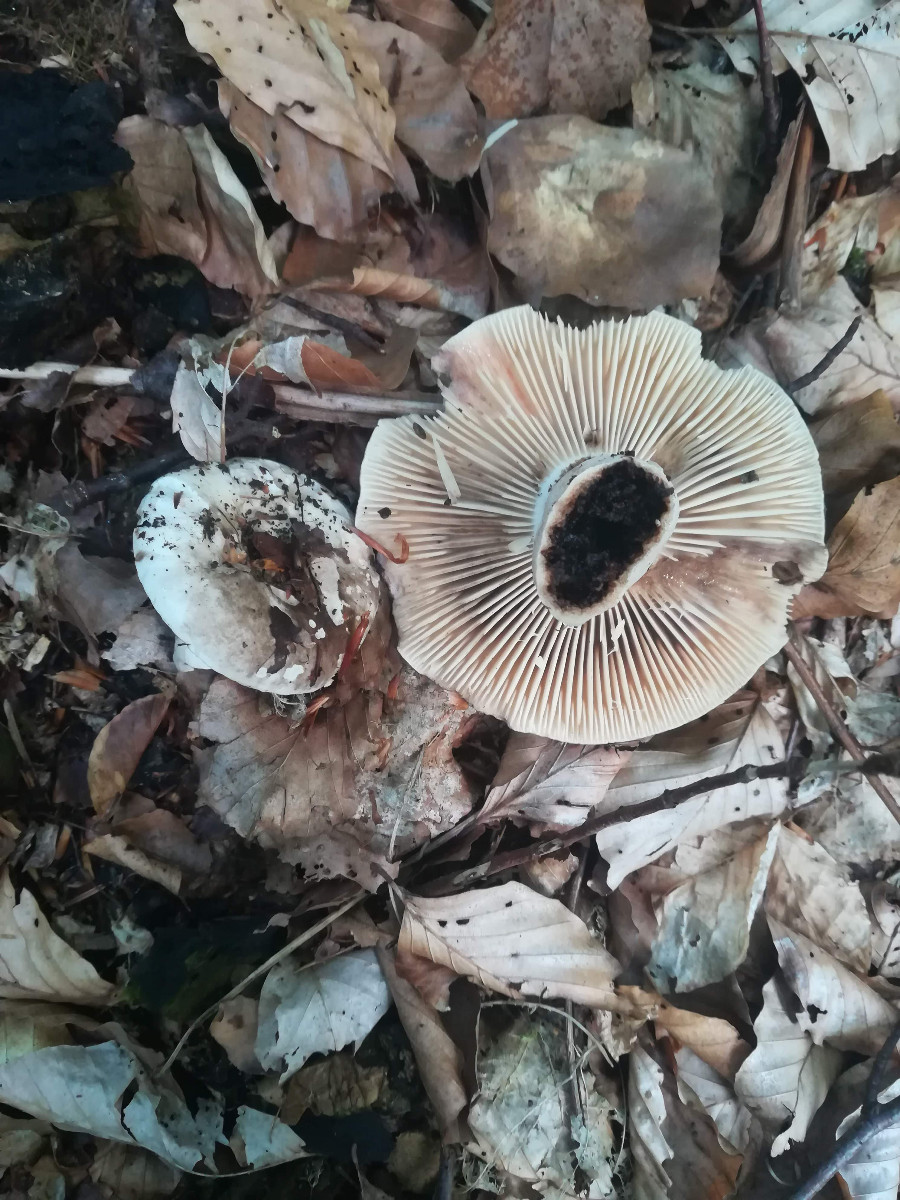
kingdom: Fungi
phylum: Basidiomycota
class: Agaricomycetes
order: Russulales
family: Russulaceae
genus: Russula
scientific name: Russula adusta
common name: sværtende skørhat
